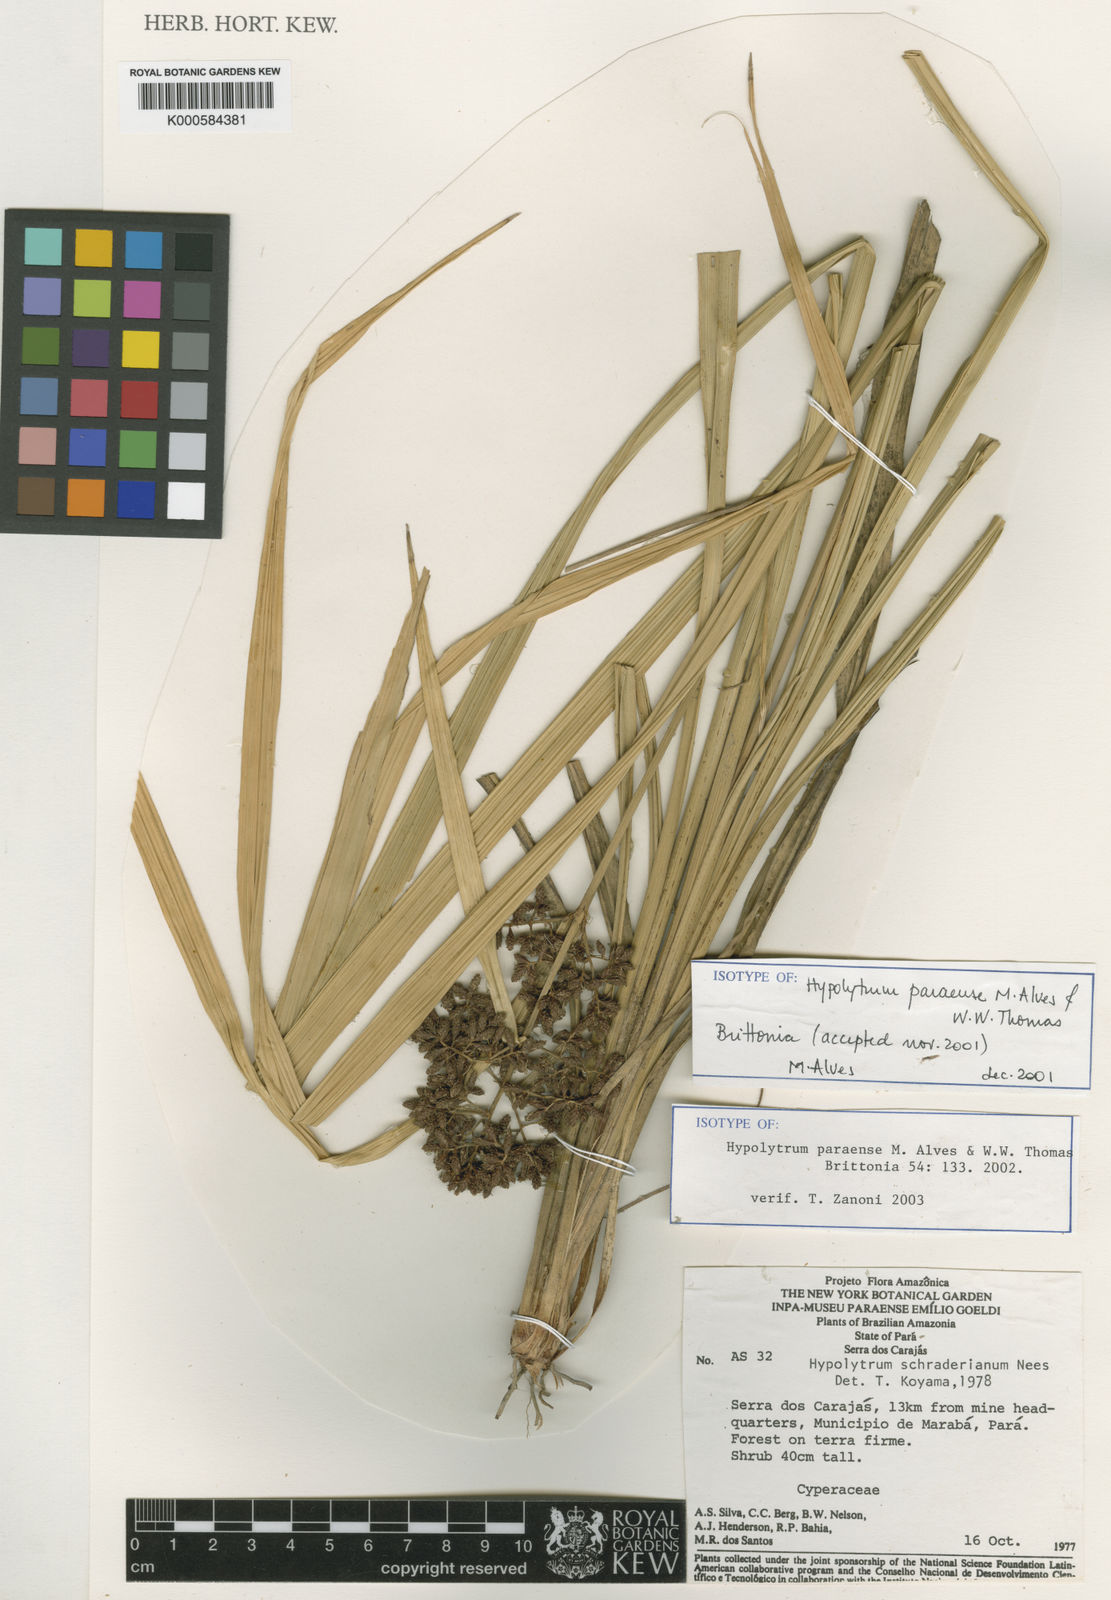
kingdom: Plantae
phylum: Tracheophyta
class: Liliopsida
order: Poales
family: Cyperaceae
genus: Hypolytrum
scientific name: Hypolytrum schraderianum
